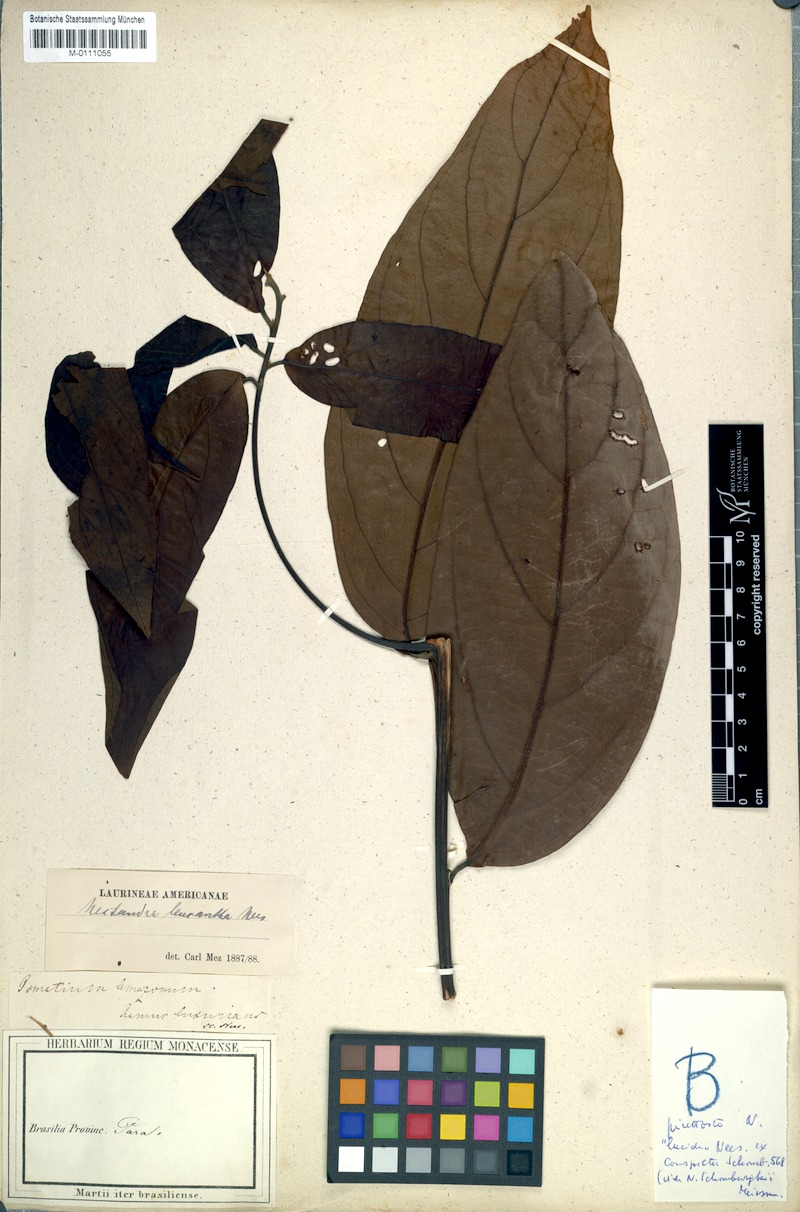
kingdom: Plantae
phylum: Tracheophyta
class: Magnoliopsida
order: Laurales
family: Lauraceae
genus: Nectandra
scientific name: Nectandra leucantha
